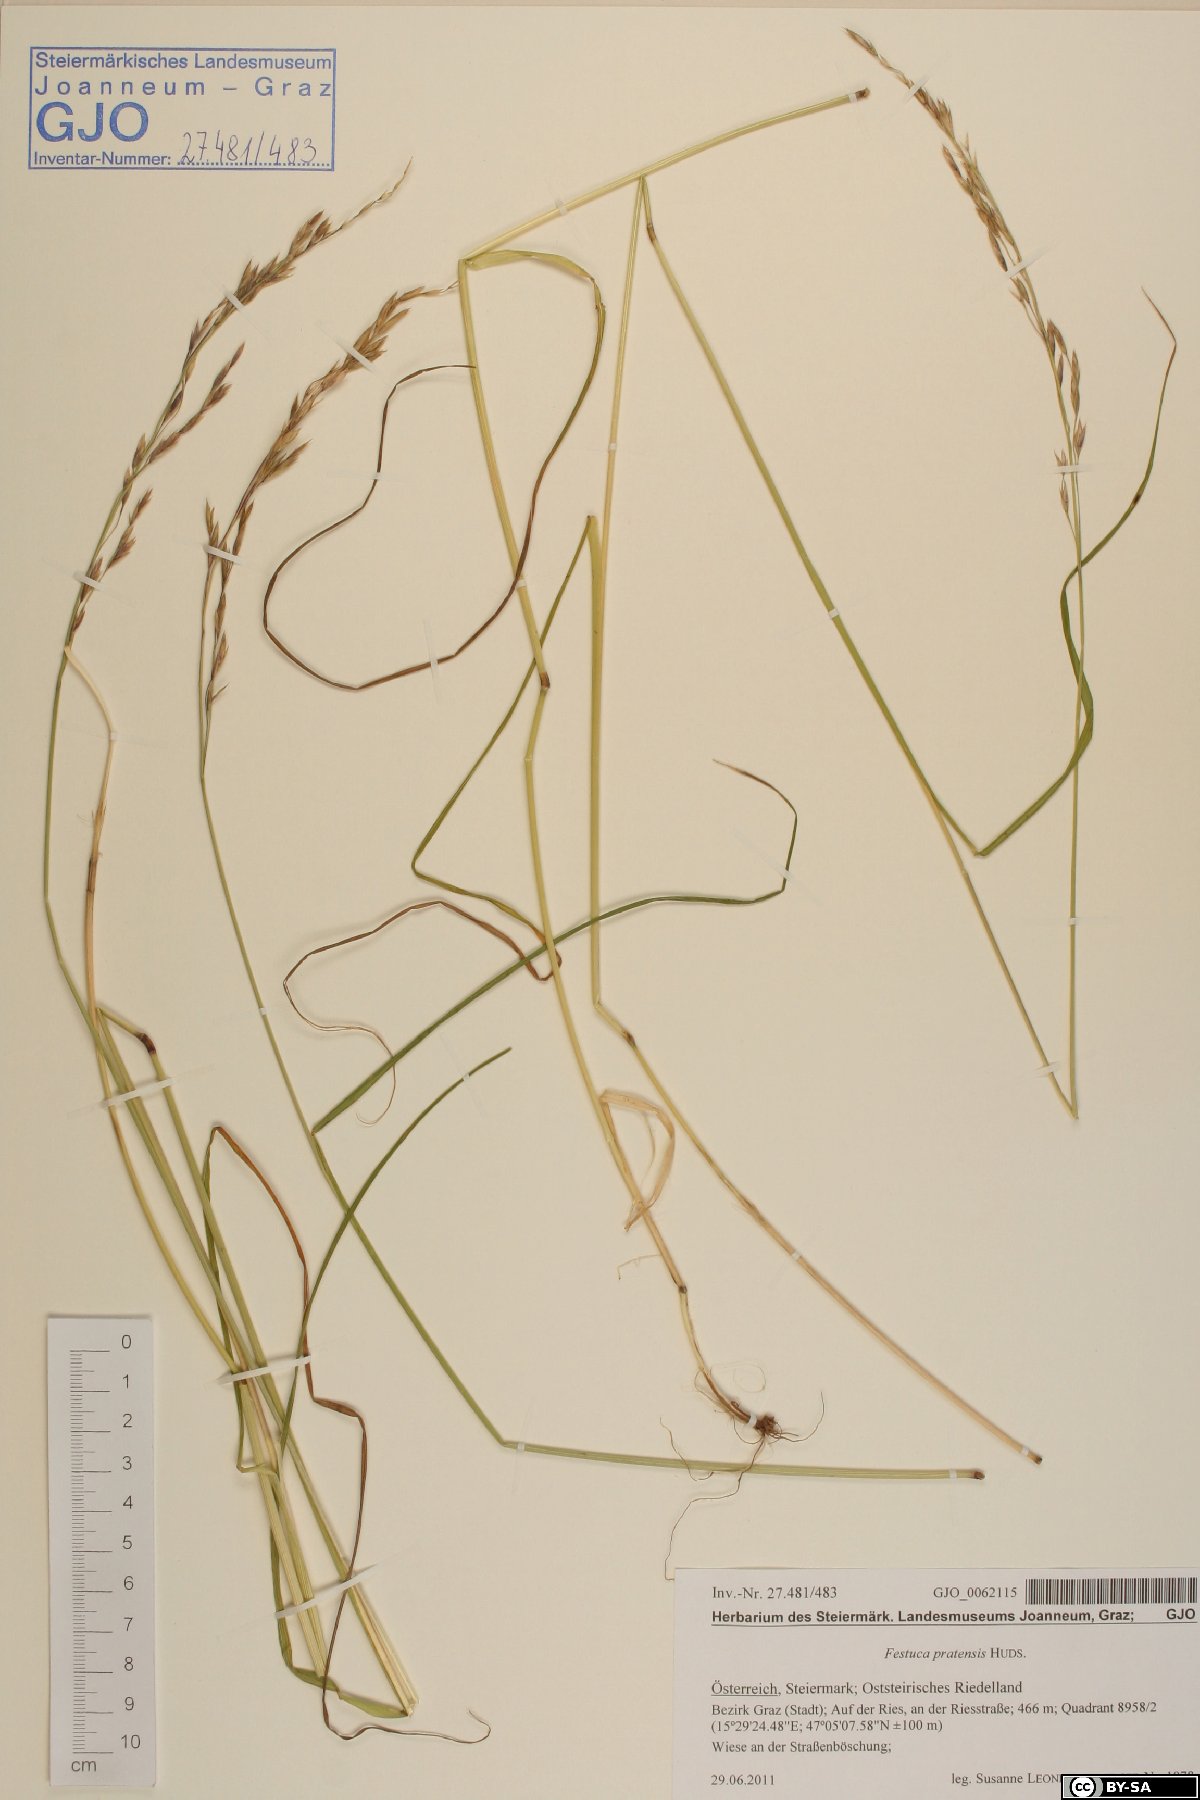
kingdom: Plantae
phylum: Tracheophyta
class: Liliopsida
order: Poales
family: Poaceae
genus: Lolium
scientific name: Lolium pratense
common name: Dover grass
